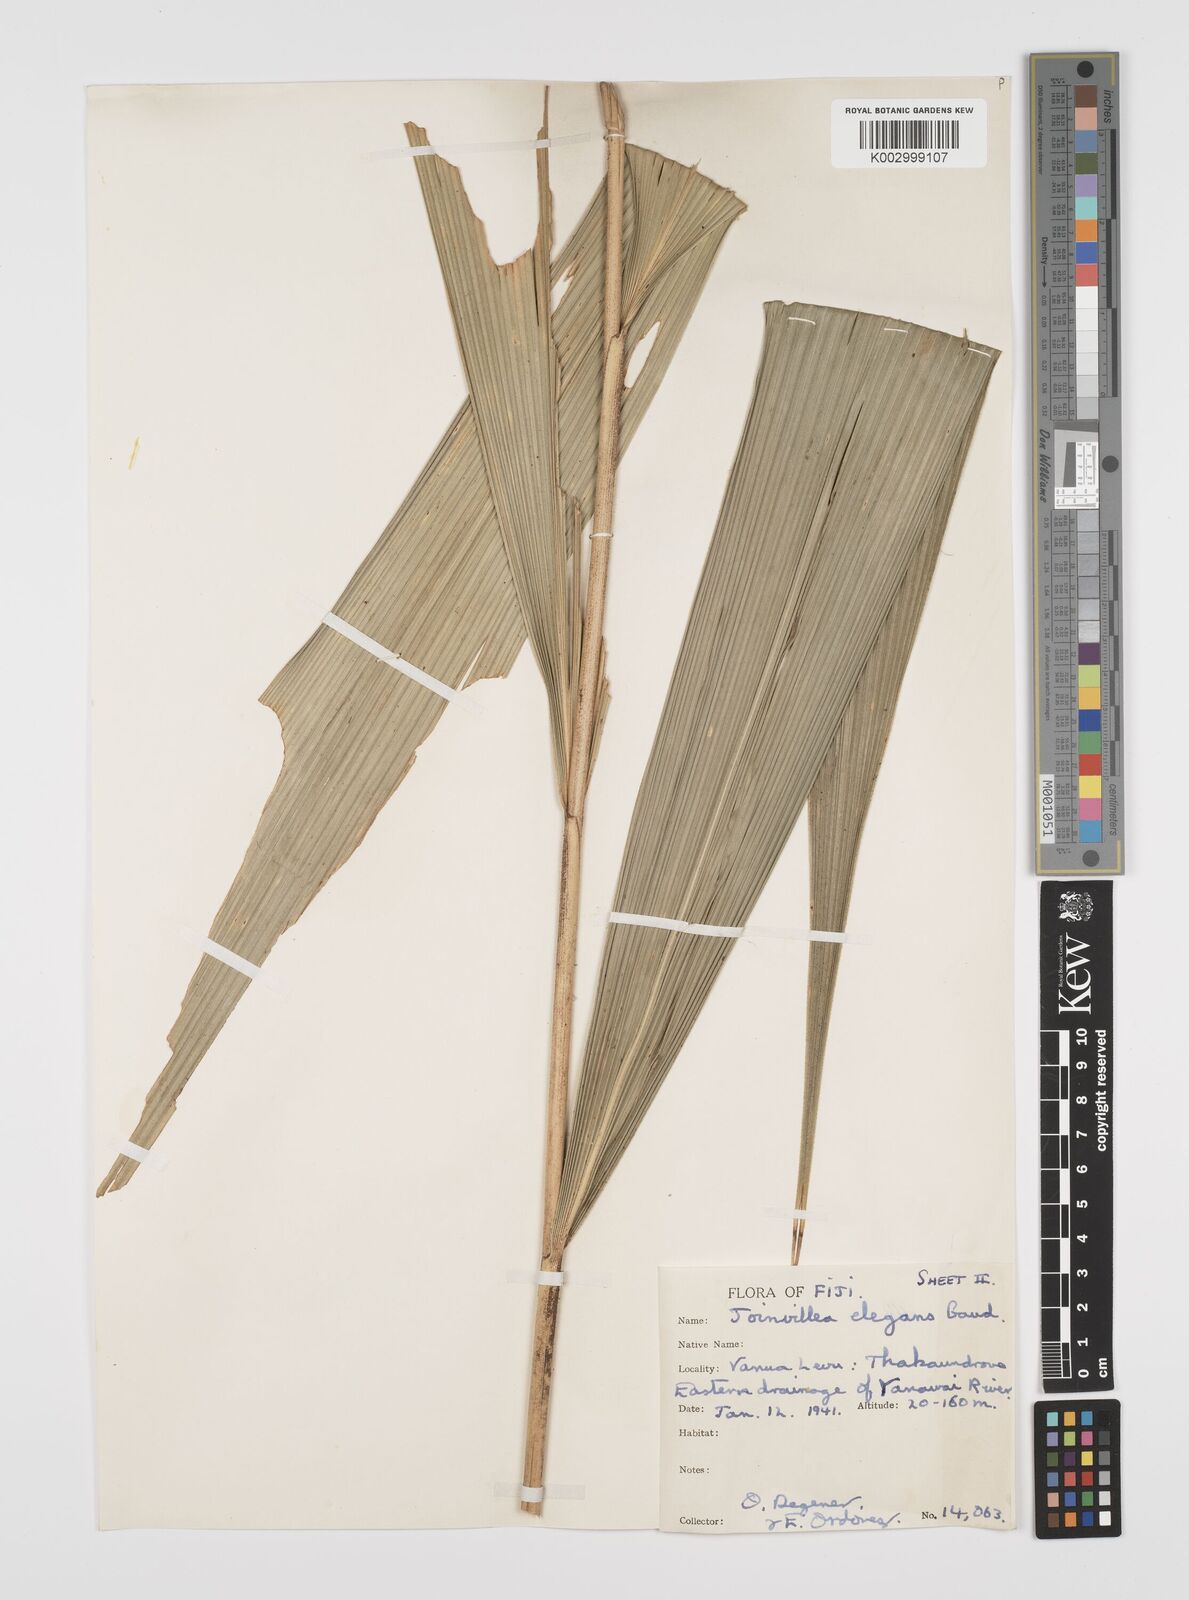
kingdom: Plantae
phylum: Tracheophyta
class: Liliopsida
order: Poales
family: Joinvilleaceae
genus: Joinvillea
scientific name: Joinvillea plicata
